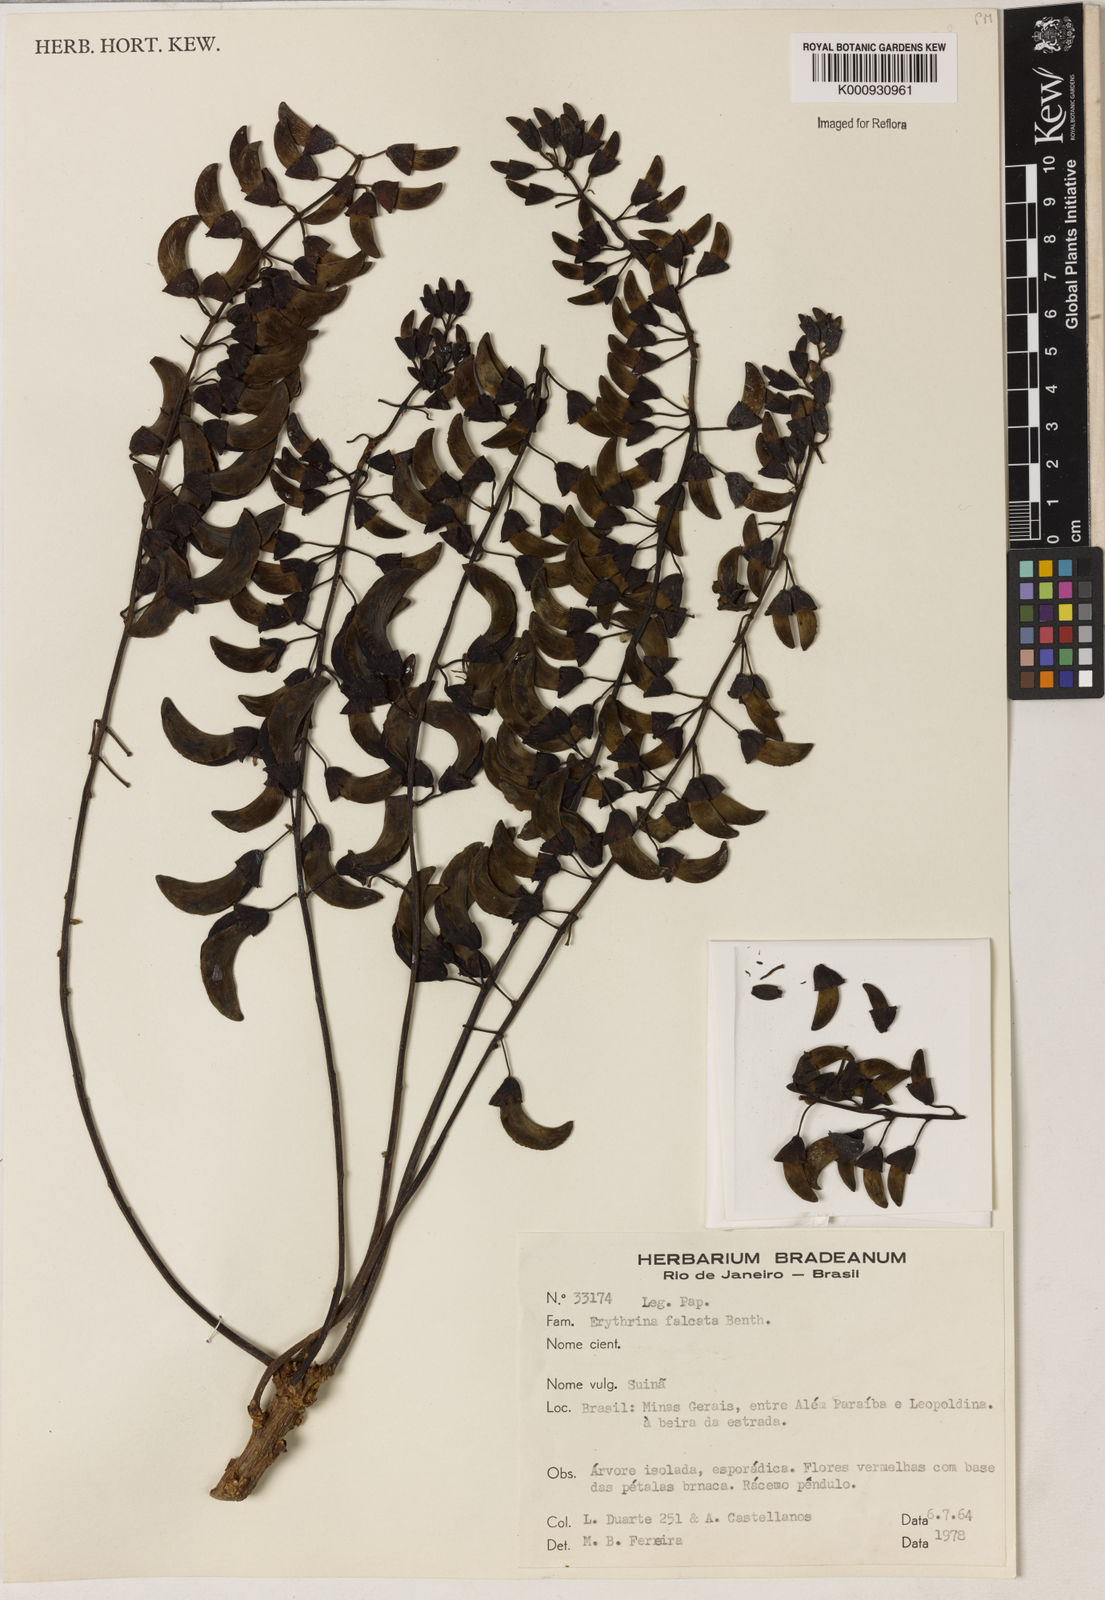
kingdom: Plantae
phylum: Tracheophyta
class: Magnoliopsida
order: Fabales
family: Fabaceae
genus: Erythrina
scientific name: Erythrina falcata
